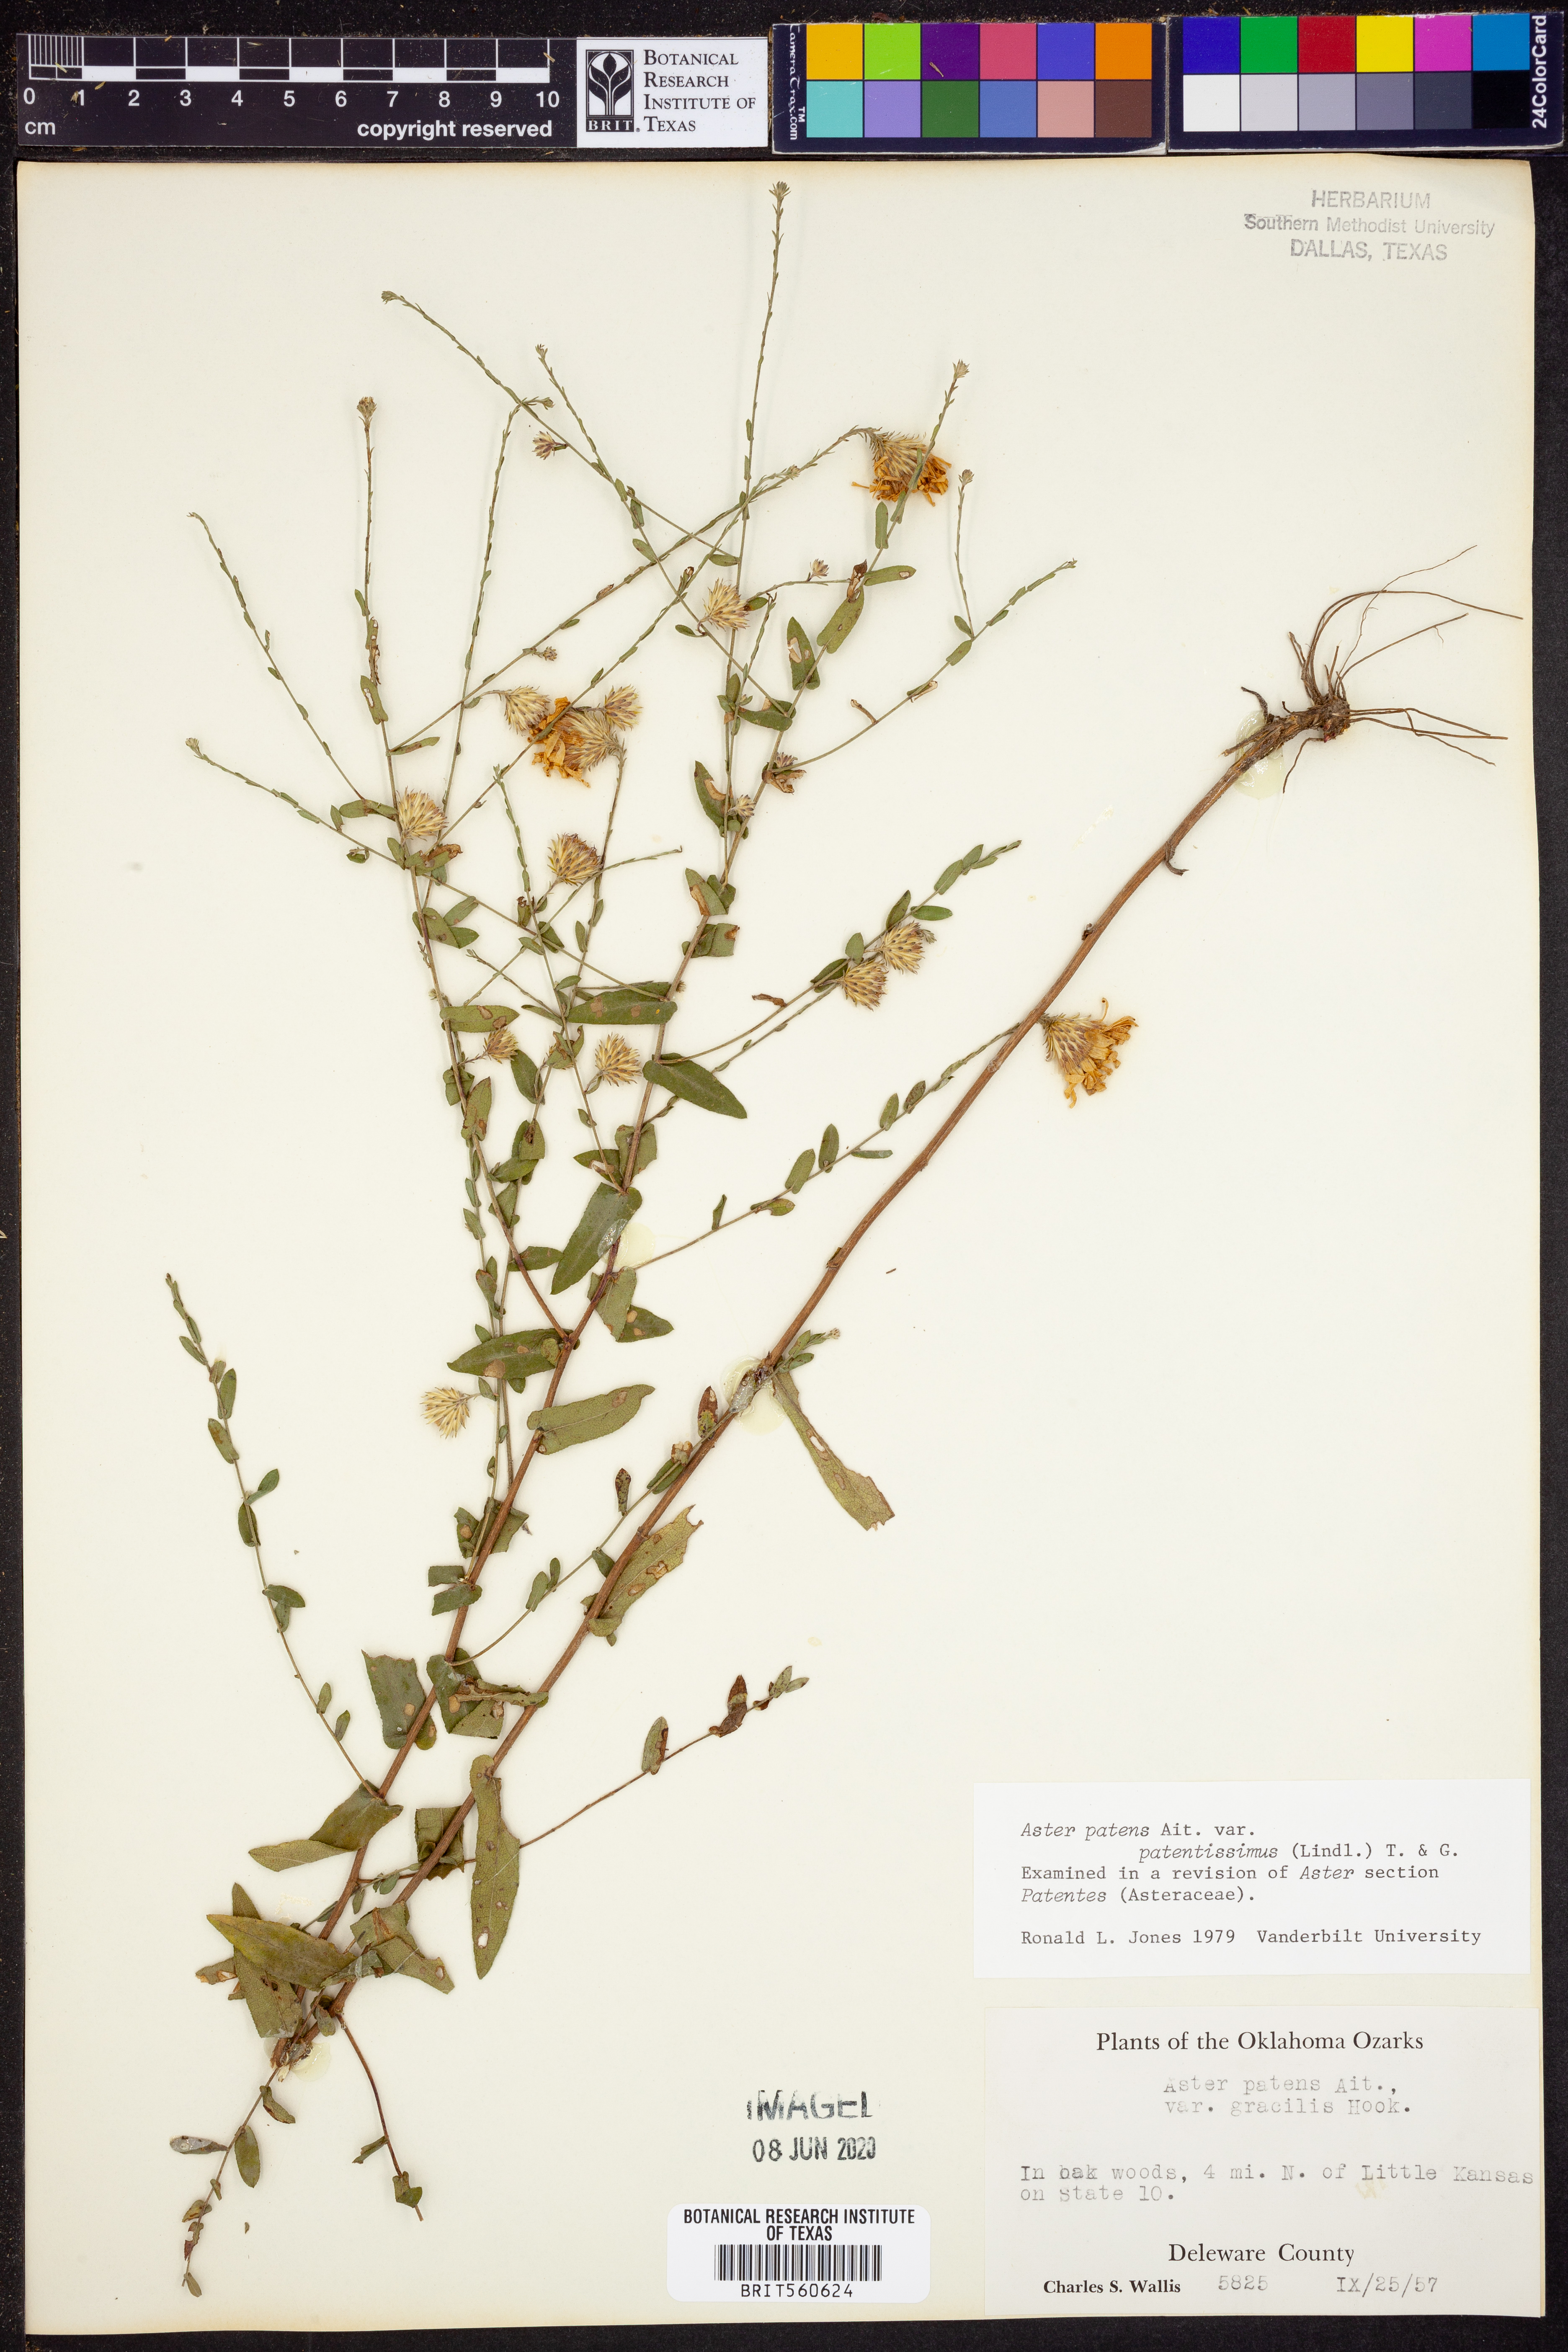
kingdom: Plantae
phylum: Tracheophyta
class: Magnoliopsida
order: Asterales
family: Asteraceae
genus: Symphyotrichum
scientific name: Symphyotrichum patens
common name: Late purple aster
